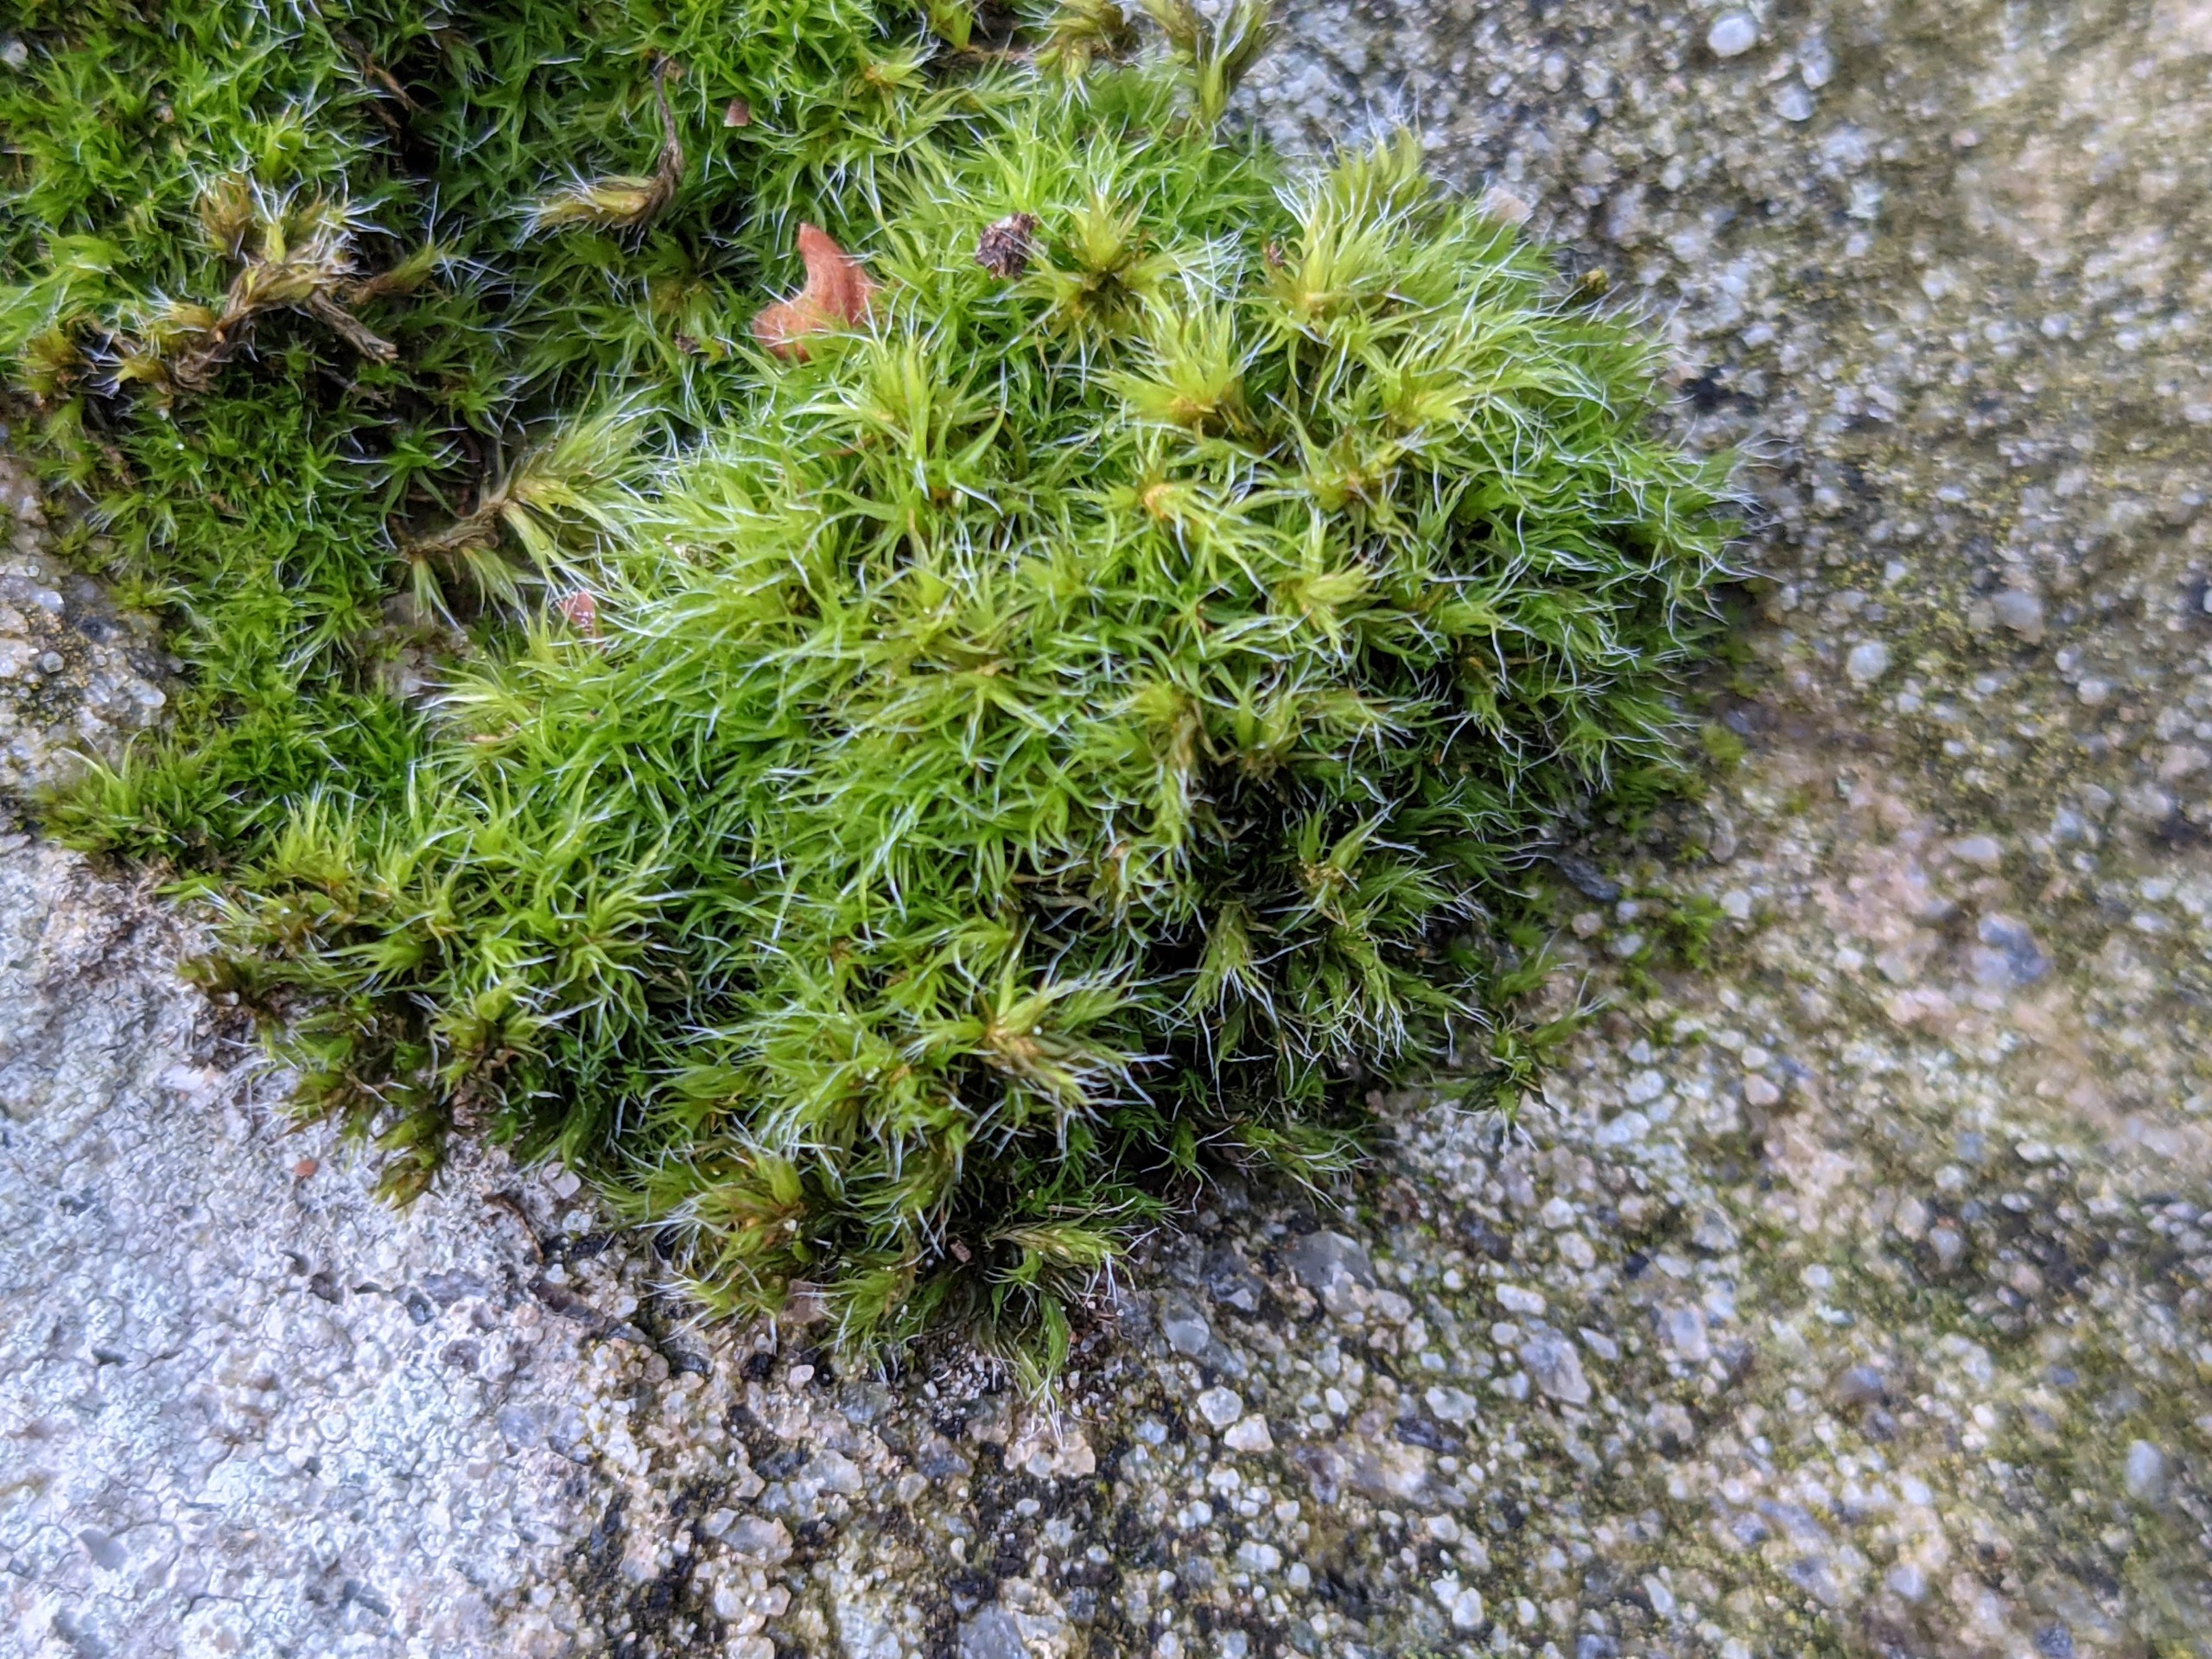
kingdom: Plantae
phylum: Bryophyta
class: Bryopsida
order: Grimmiales
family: Grimmiaceae
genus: Grimmia
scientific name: Grimmia trichophylla
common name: Glathåret gråmos
